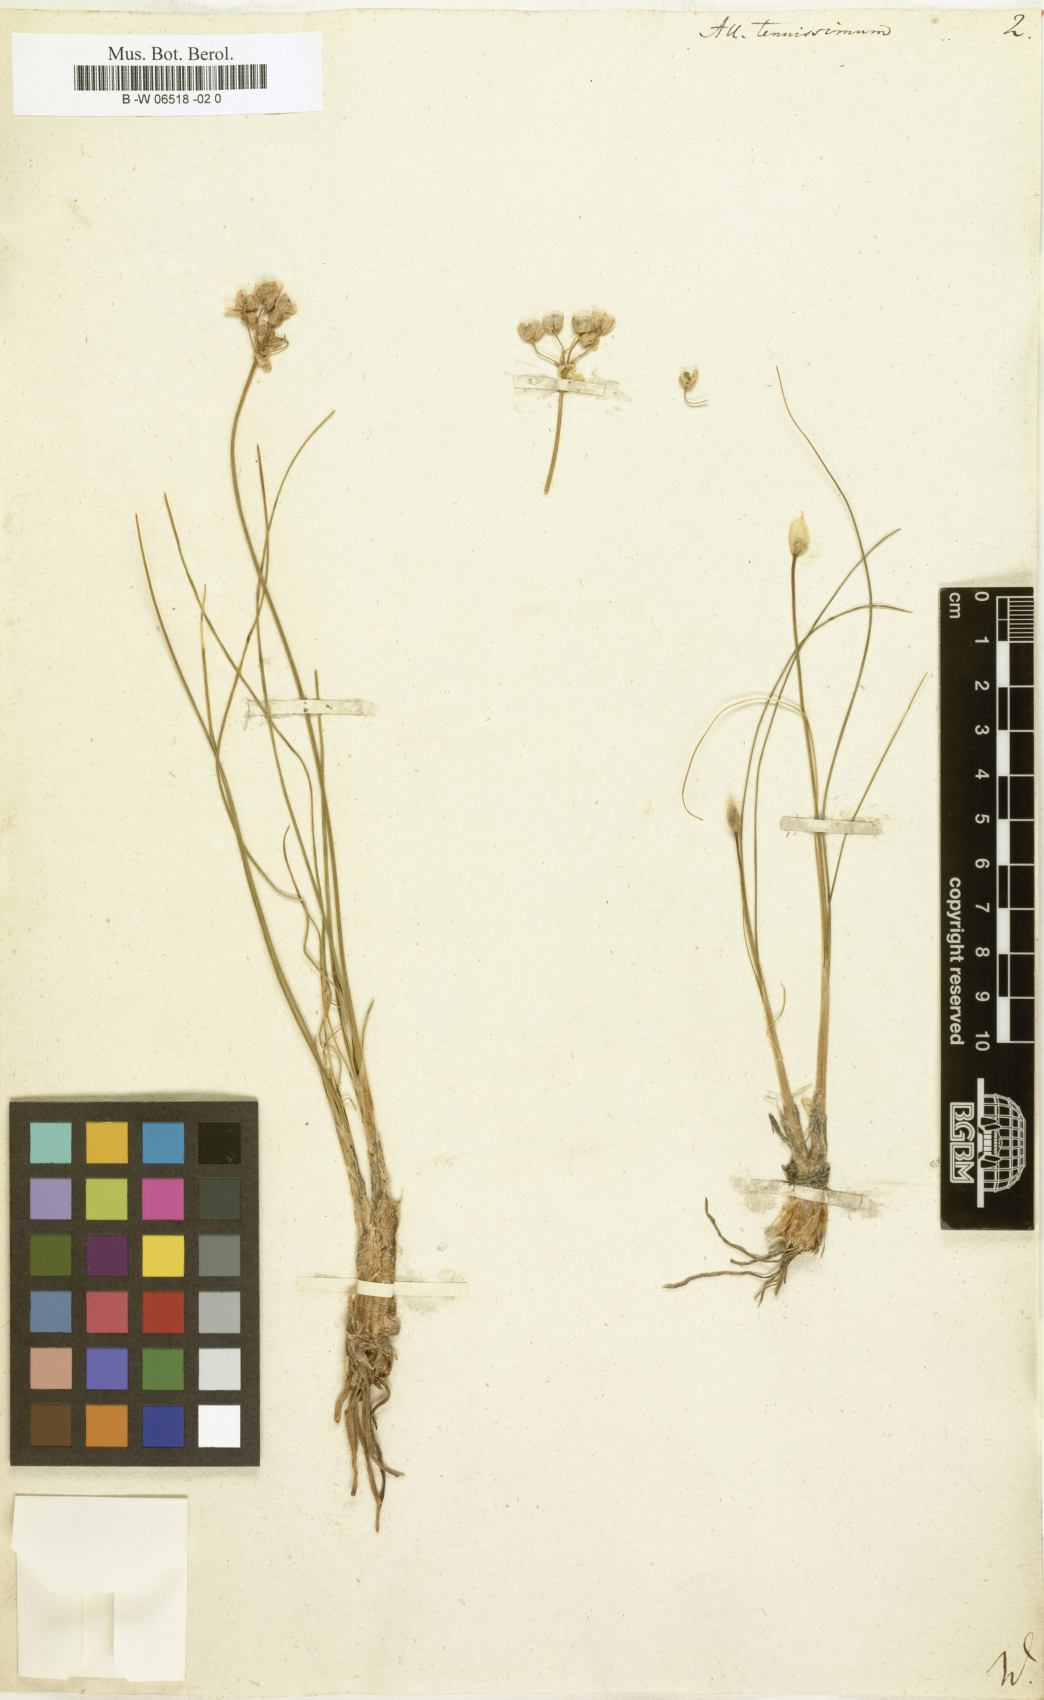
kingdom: Plantae
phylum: Tracheophyta
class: Liliopsida
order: Asparagales
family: Amaryllidaceae
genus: Allium
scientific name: Allium tenuissimum
